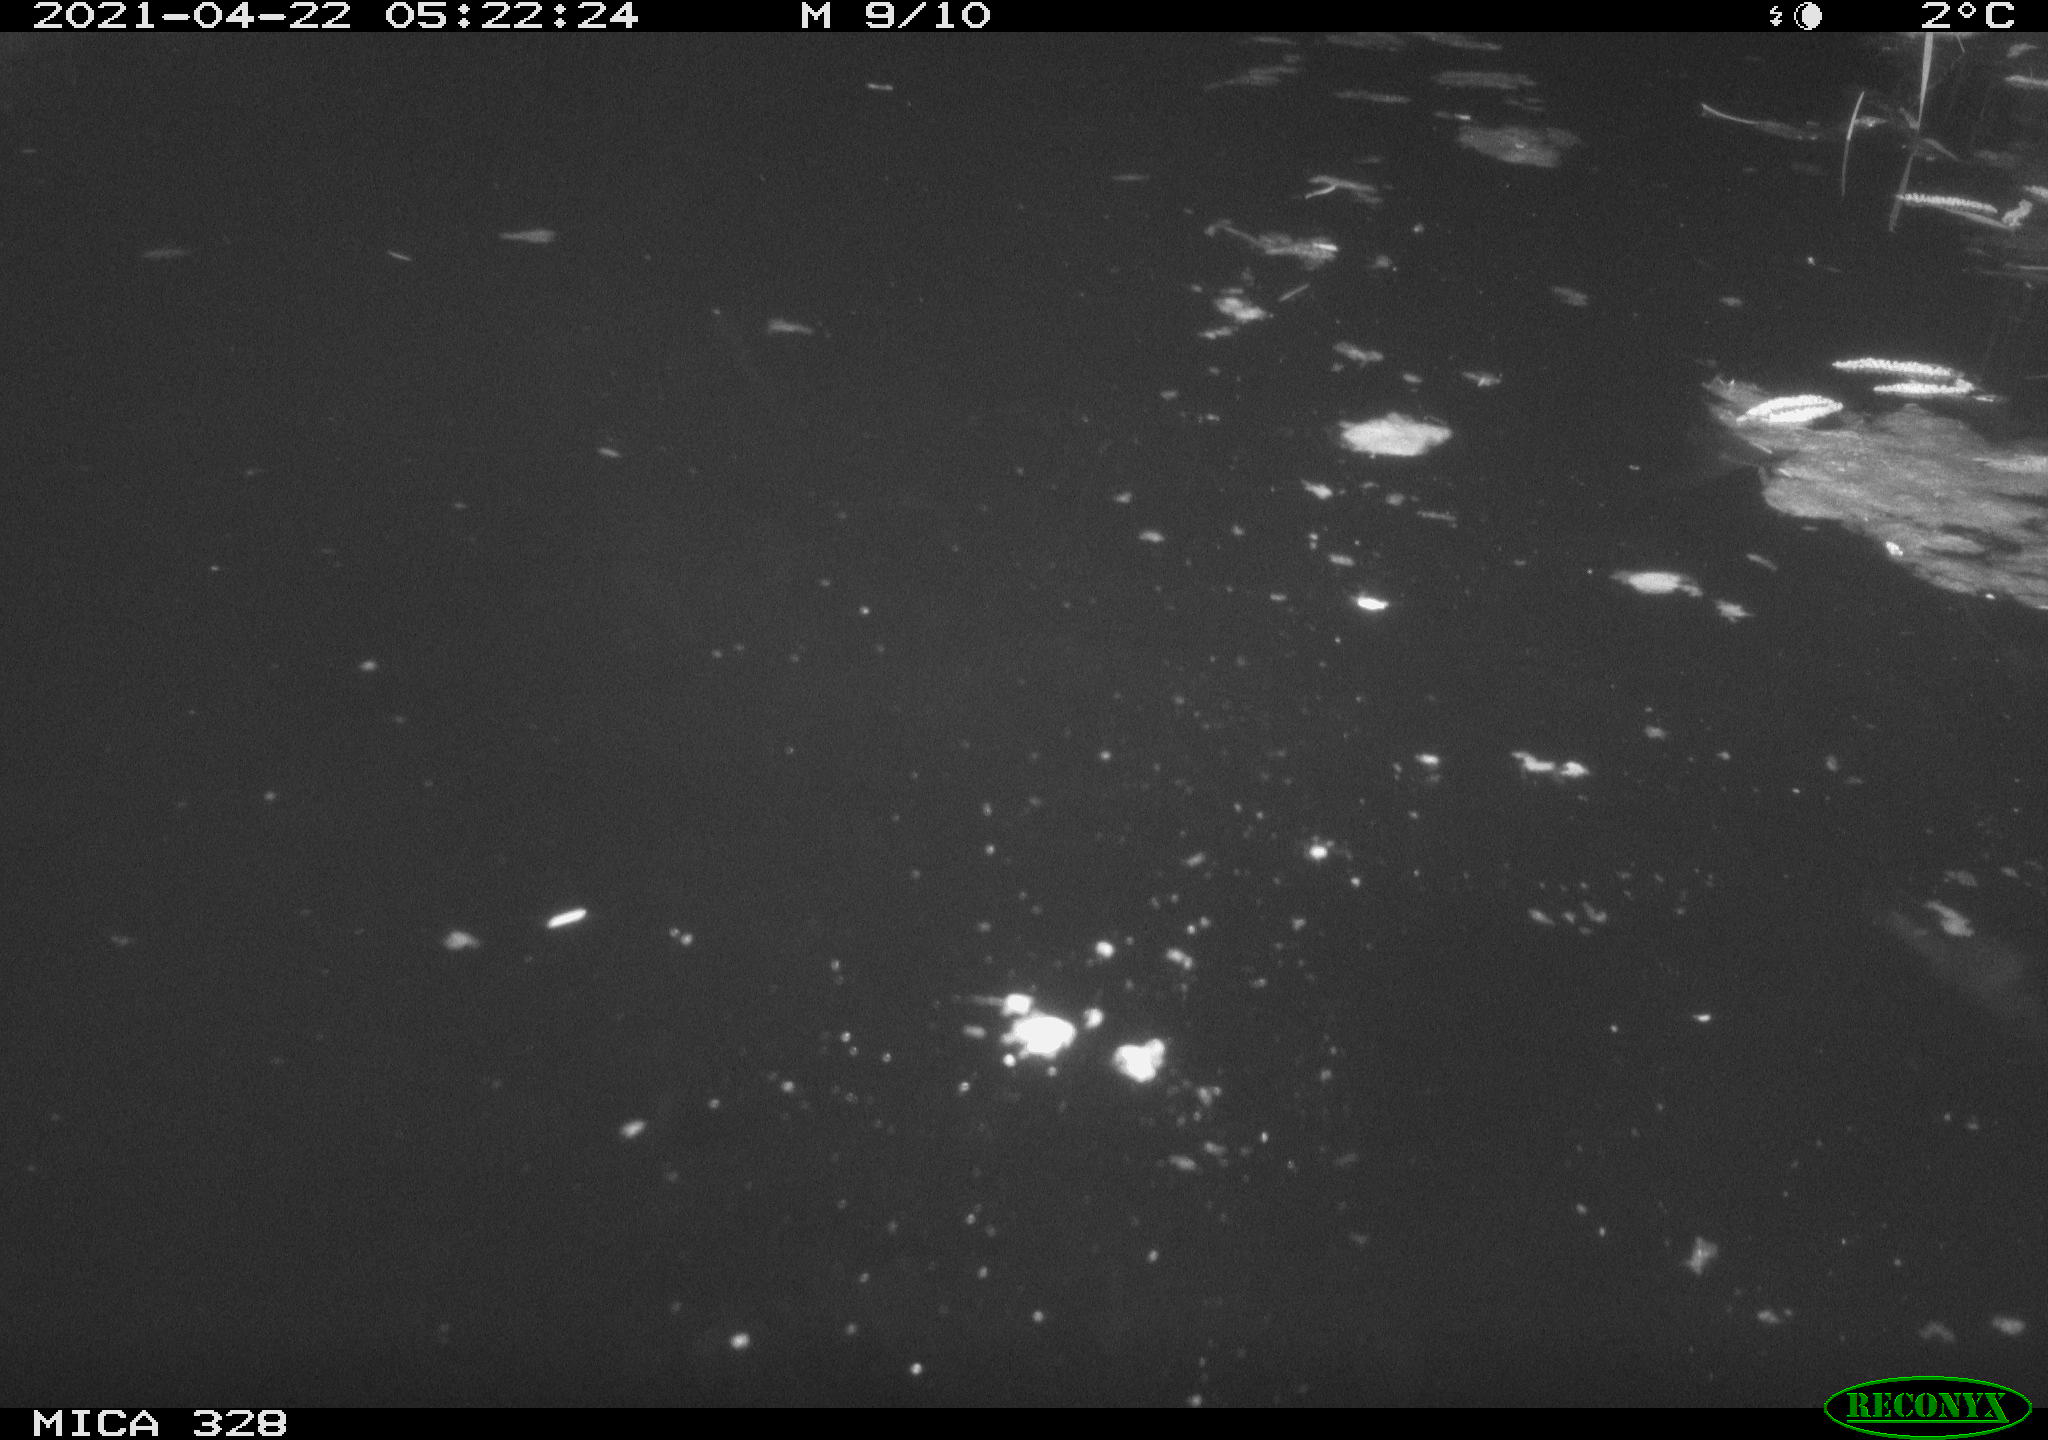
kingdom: Animalia
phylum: Chordata
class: Mammalia
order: Rodentia
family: Cricetidae
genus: Ondatra
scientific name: Ondatra zibethicus
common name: Muskrat
